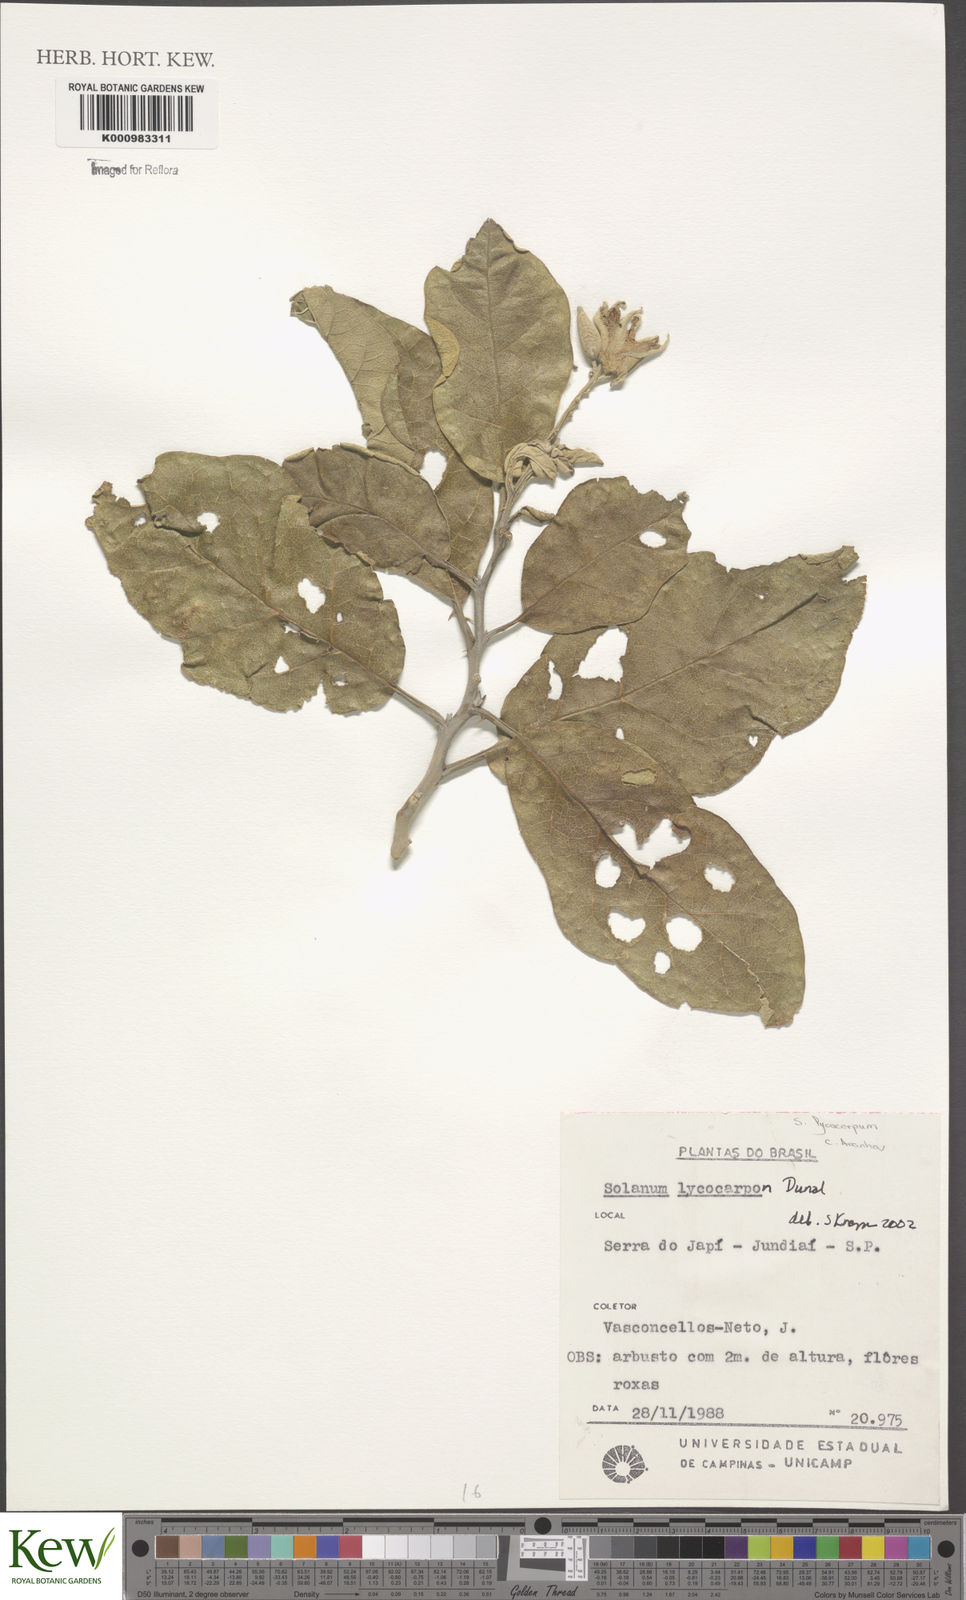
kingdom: Plantae
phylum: Tracheophyta
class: Magnoliopsida
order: Solanales
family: Solanaceae
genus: Solanum
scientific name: Solanum lycocarpum
